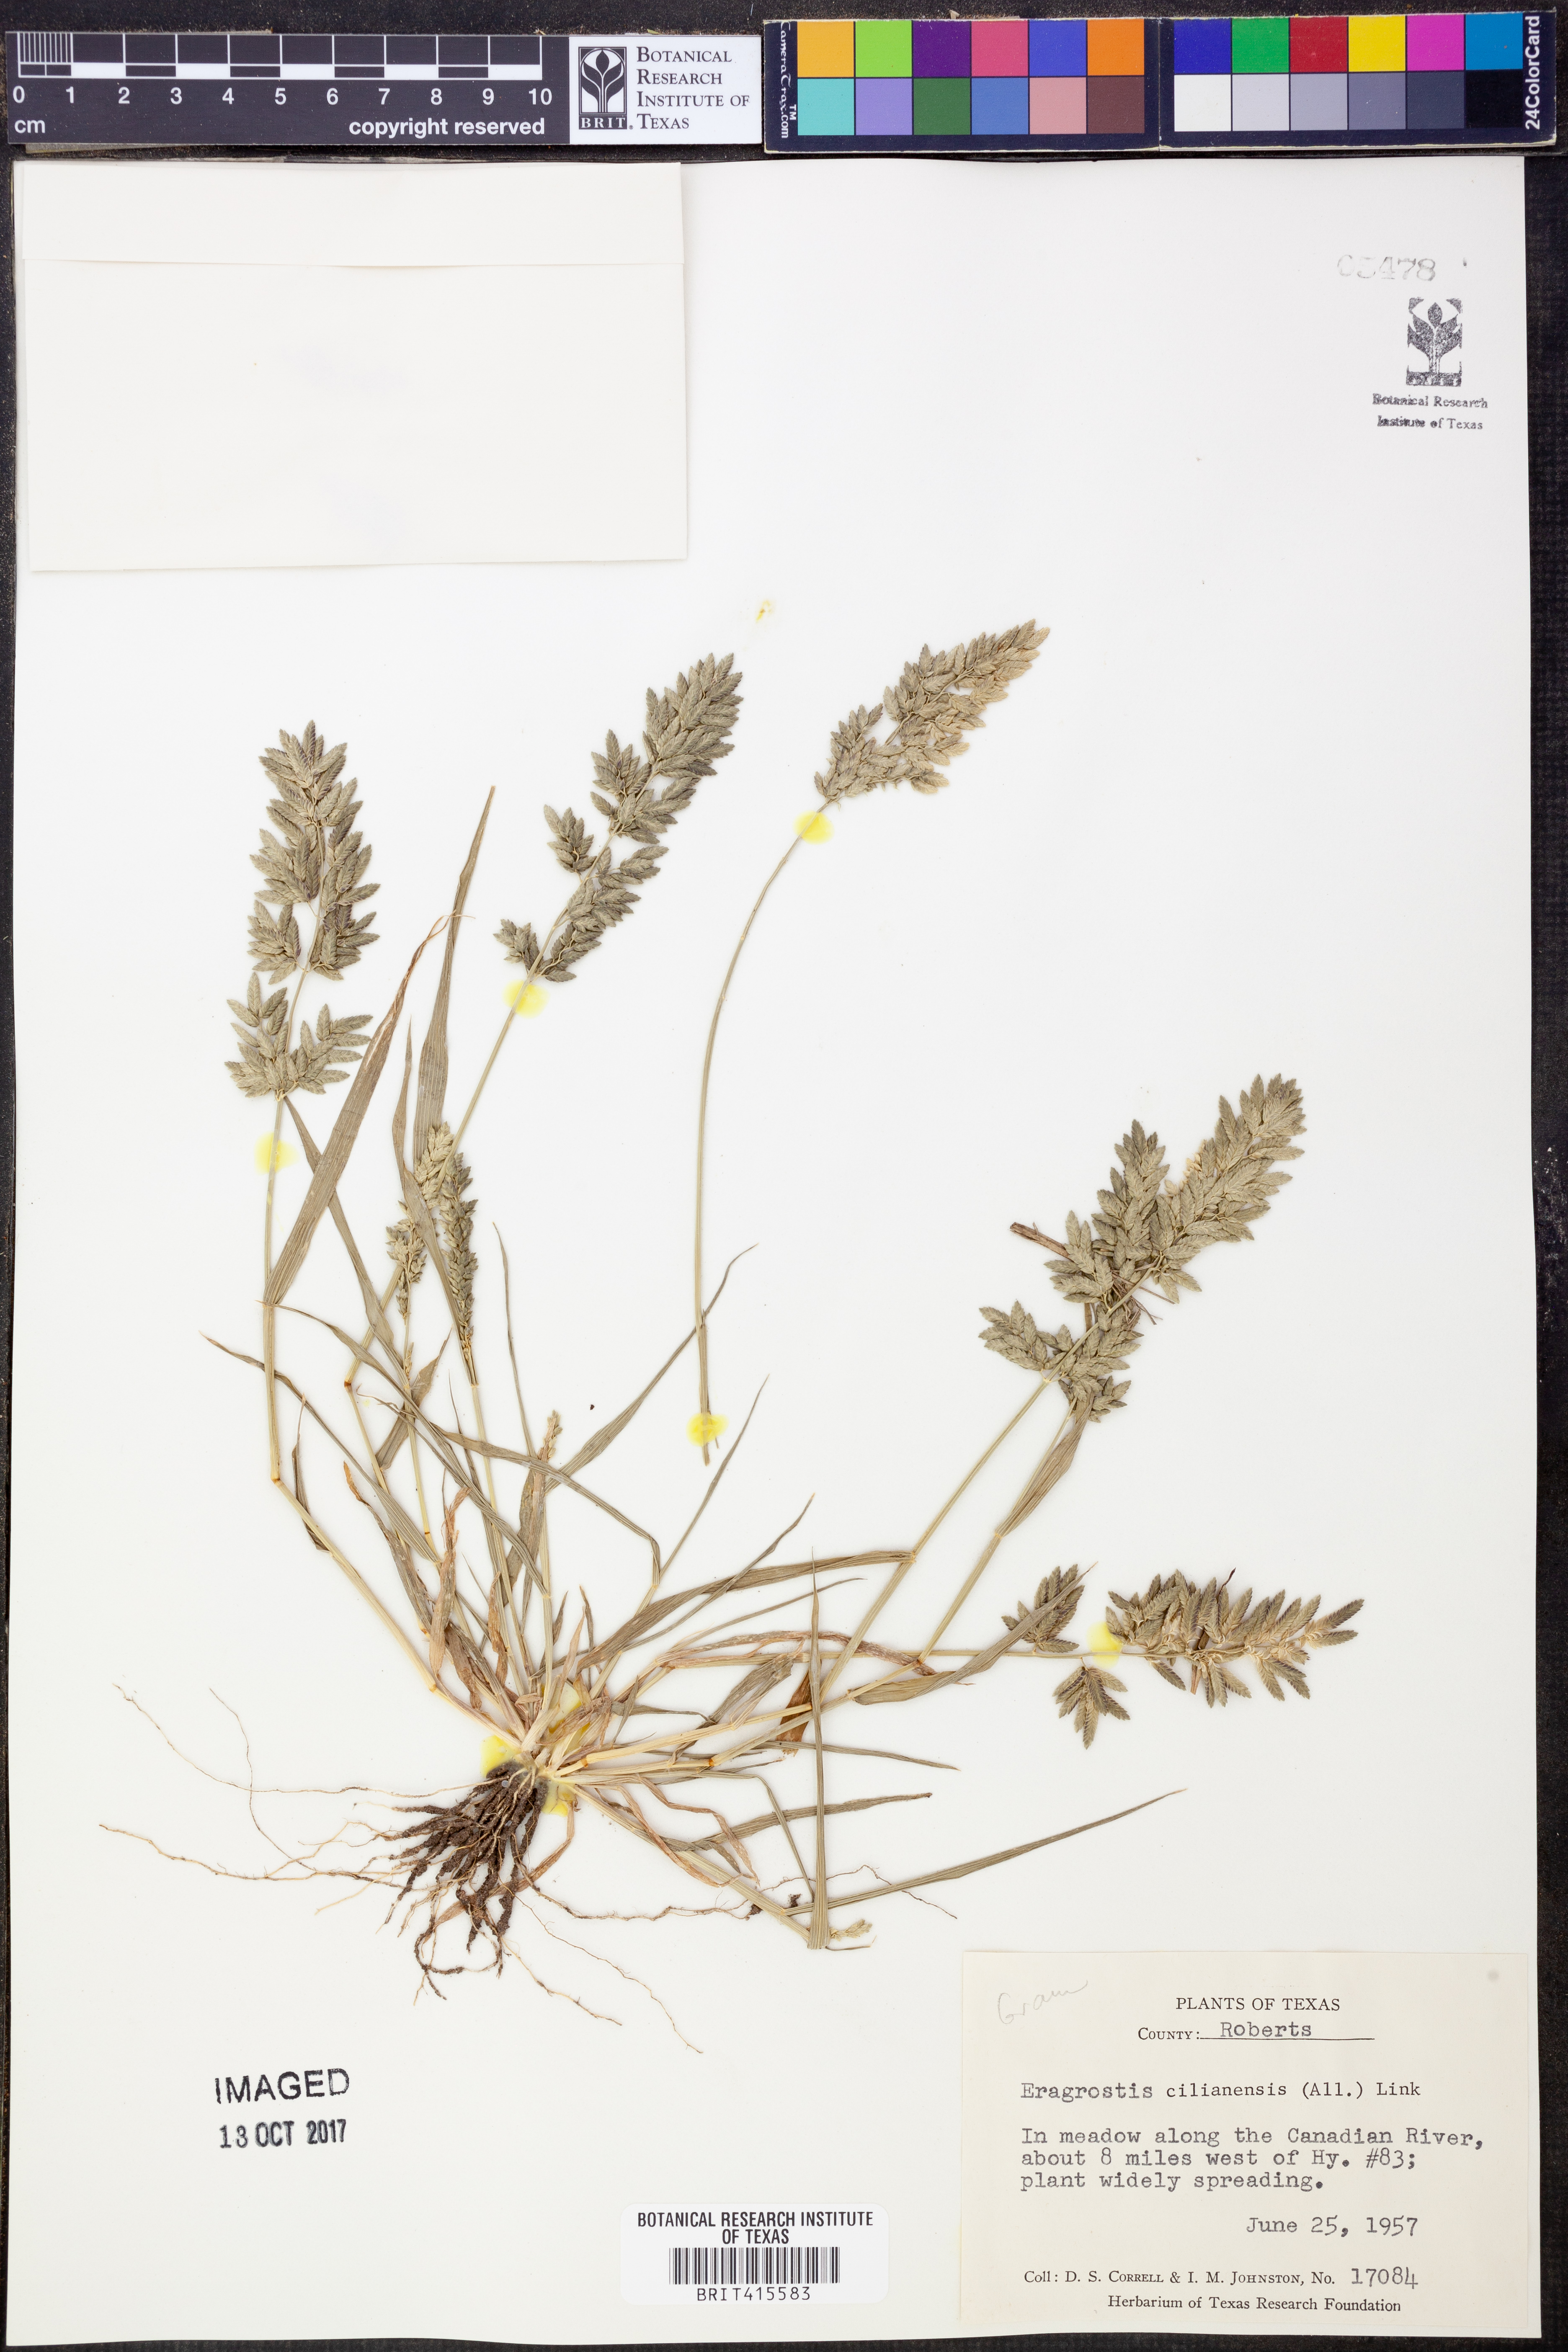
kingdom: Plantae
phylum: Tracheophyta
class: Liliopsida
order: Poales
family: Poaceae
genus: Eragrostis
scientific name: Eragrostis cilianensis
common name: Stinkgrass
